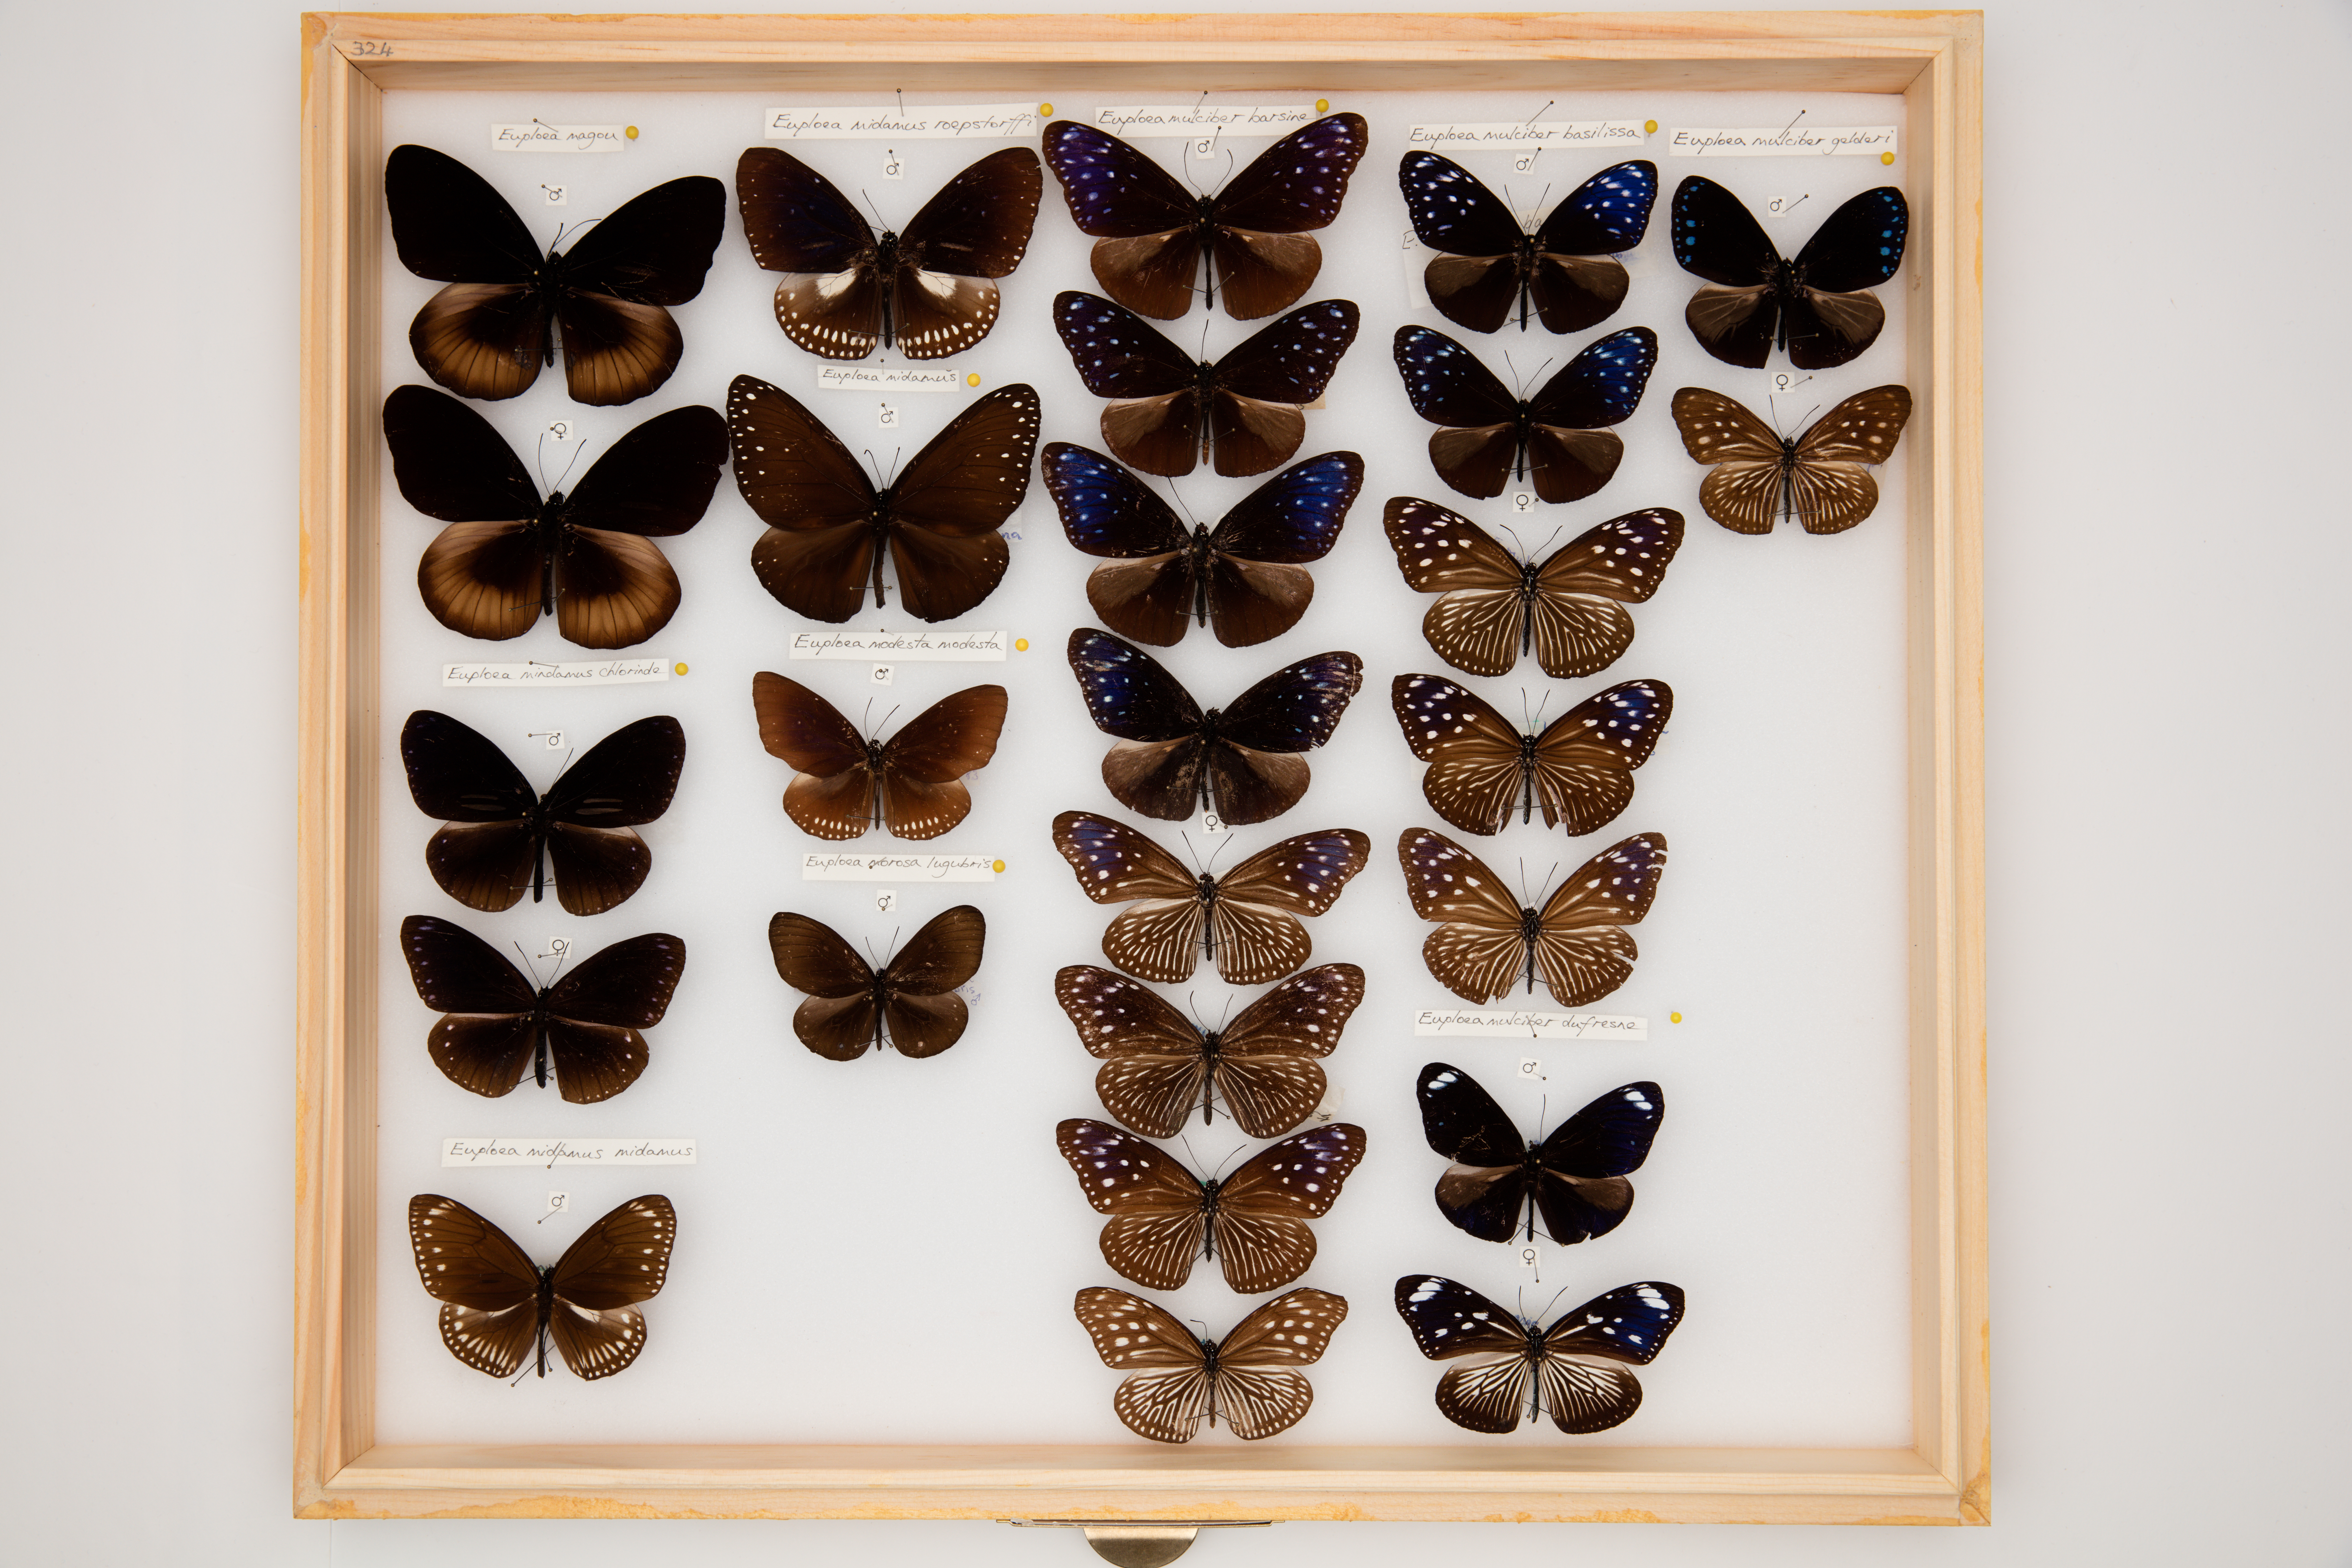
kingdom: Animalia
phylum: Arthropoda
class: Insecta
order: Lepidoptera
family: Nymphalidae
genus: Euploea
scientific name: Euploea mulciber
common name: Striped blue crow butterfly
